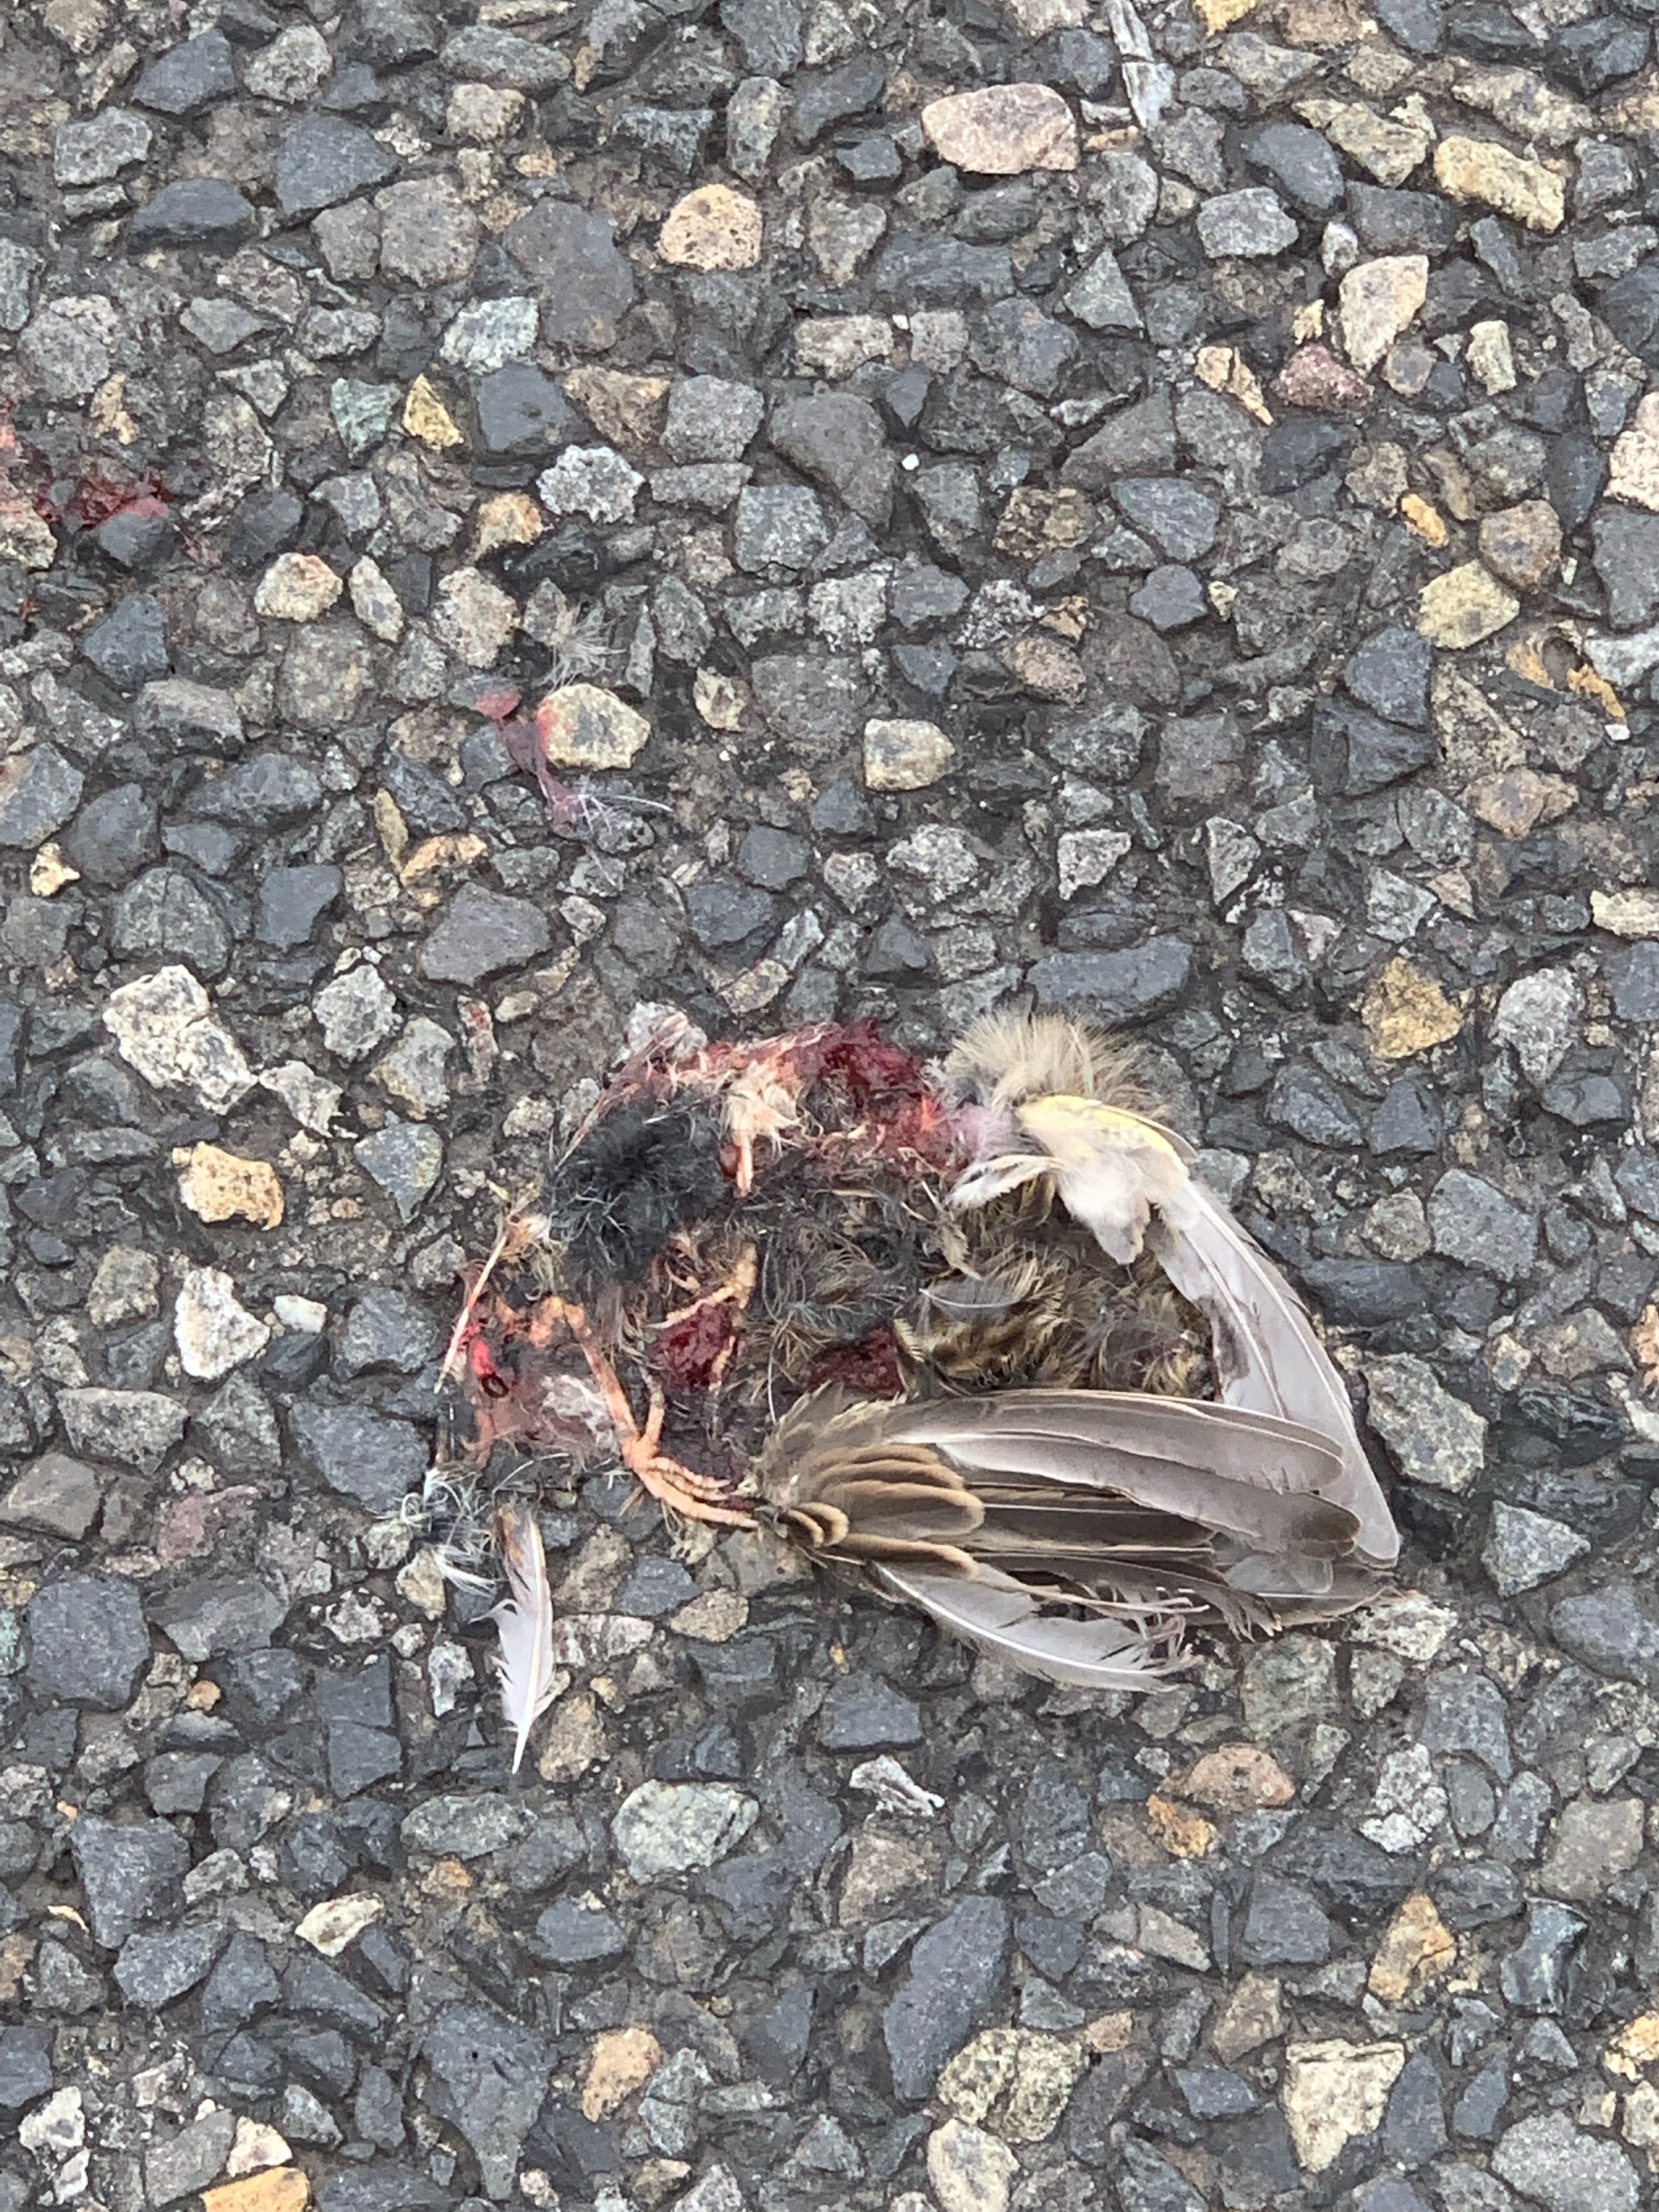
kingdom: Animalia
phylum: Chordata
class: Aves
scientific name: Aves
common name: Bird
